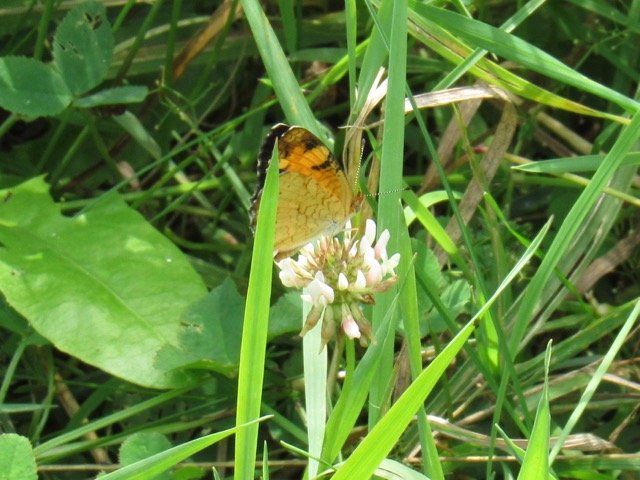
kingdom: Animalia
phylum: Arthropoda
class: Insecta
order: Lepidoptera
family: Nymphalidae
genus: Phyciodes
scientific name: Phyciodes tharos
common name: Pearl Crescent
